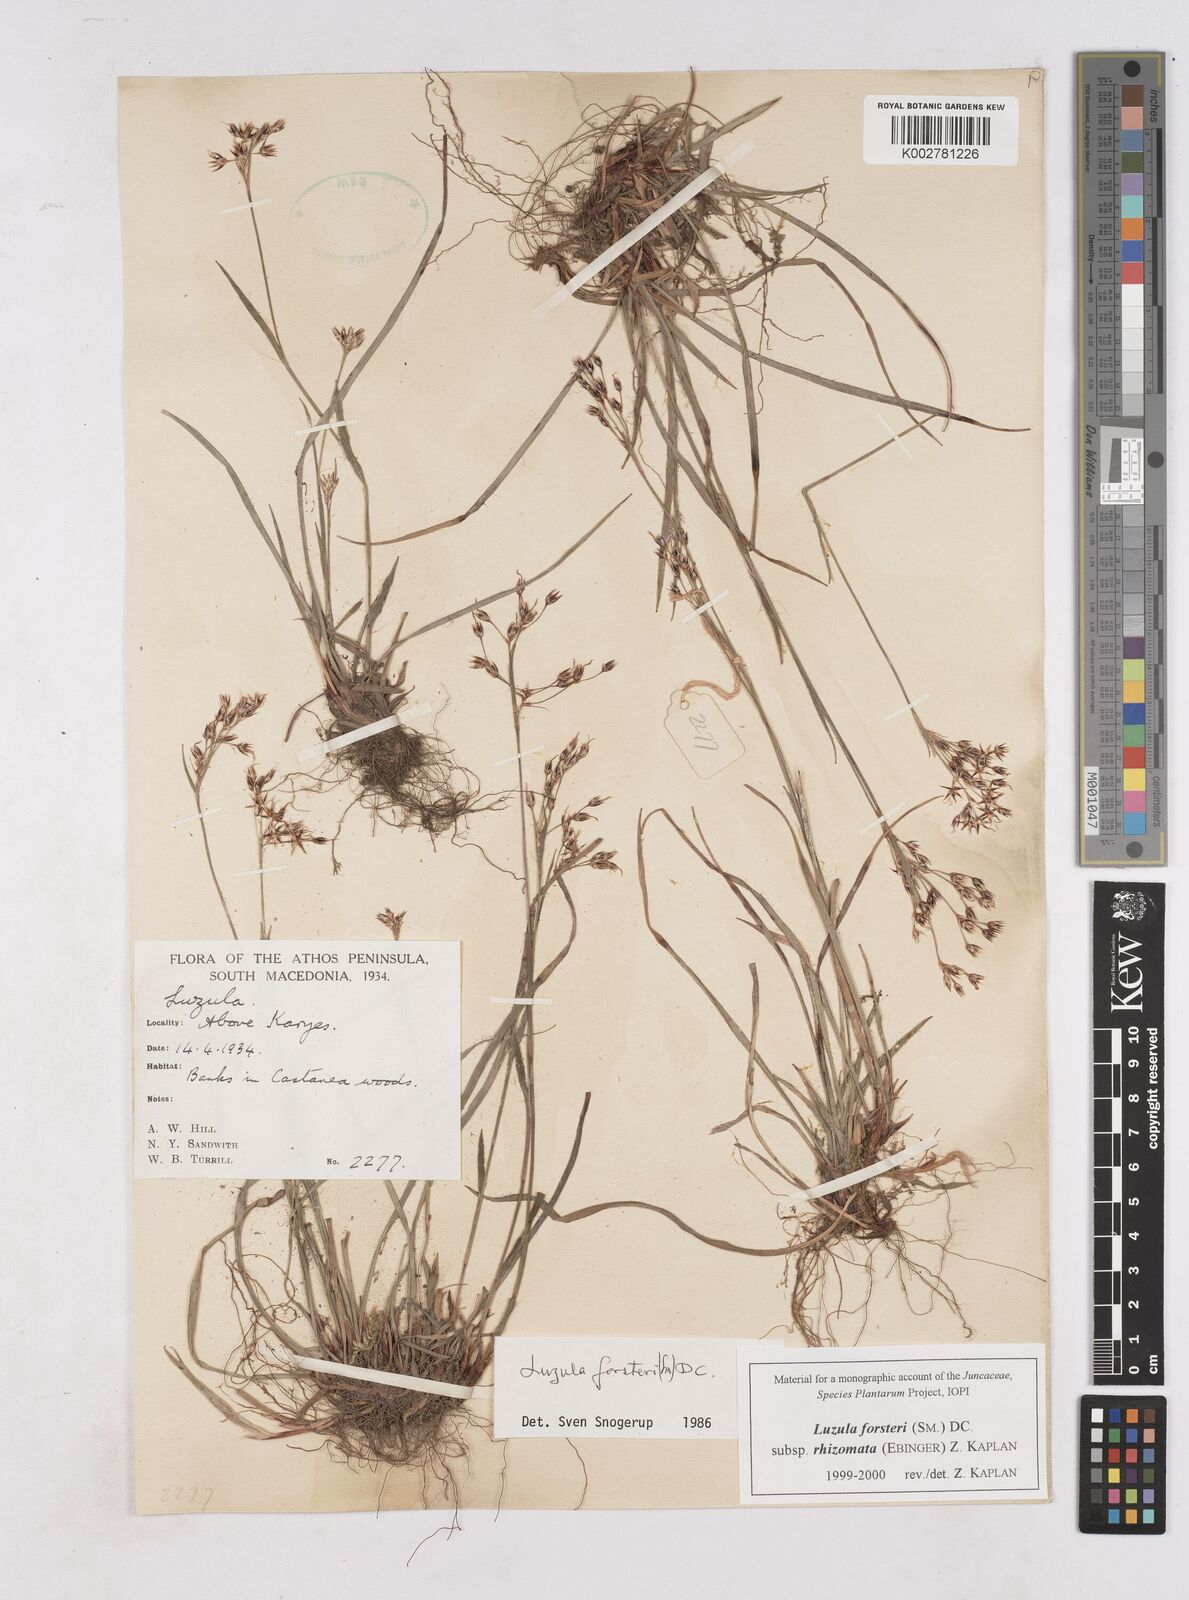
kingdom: Plantae
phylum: Tracheophyta
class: Liliopsida
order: Poales
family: Juncaceae
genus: Luzula
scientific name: Luzula forsteri
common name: Southern wood-rush
